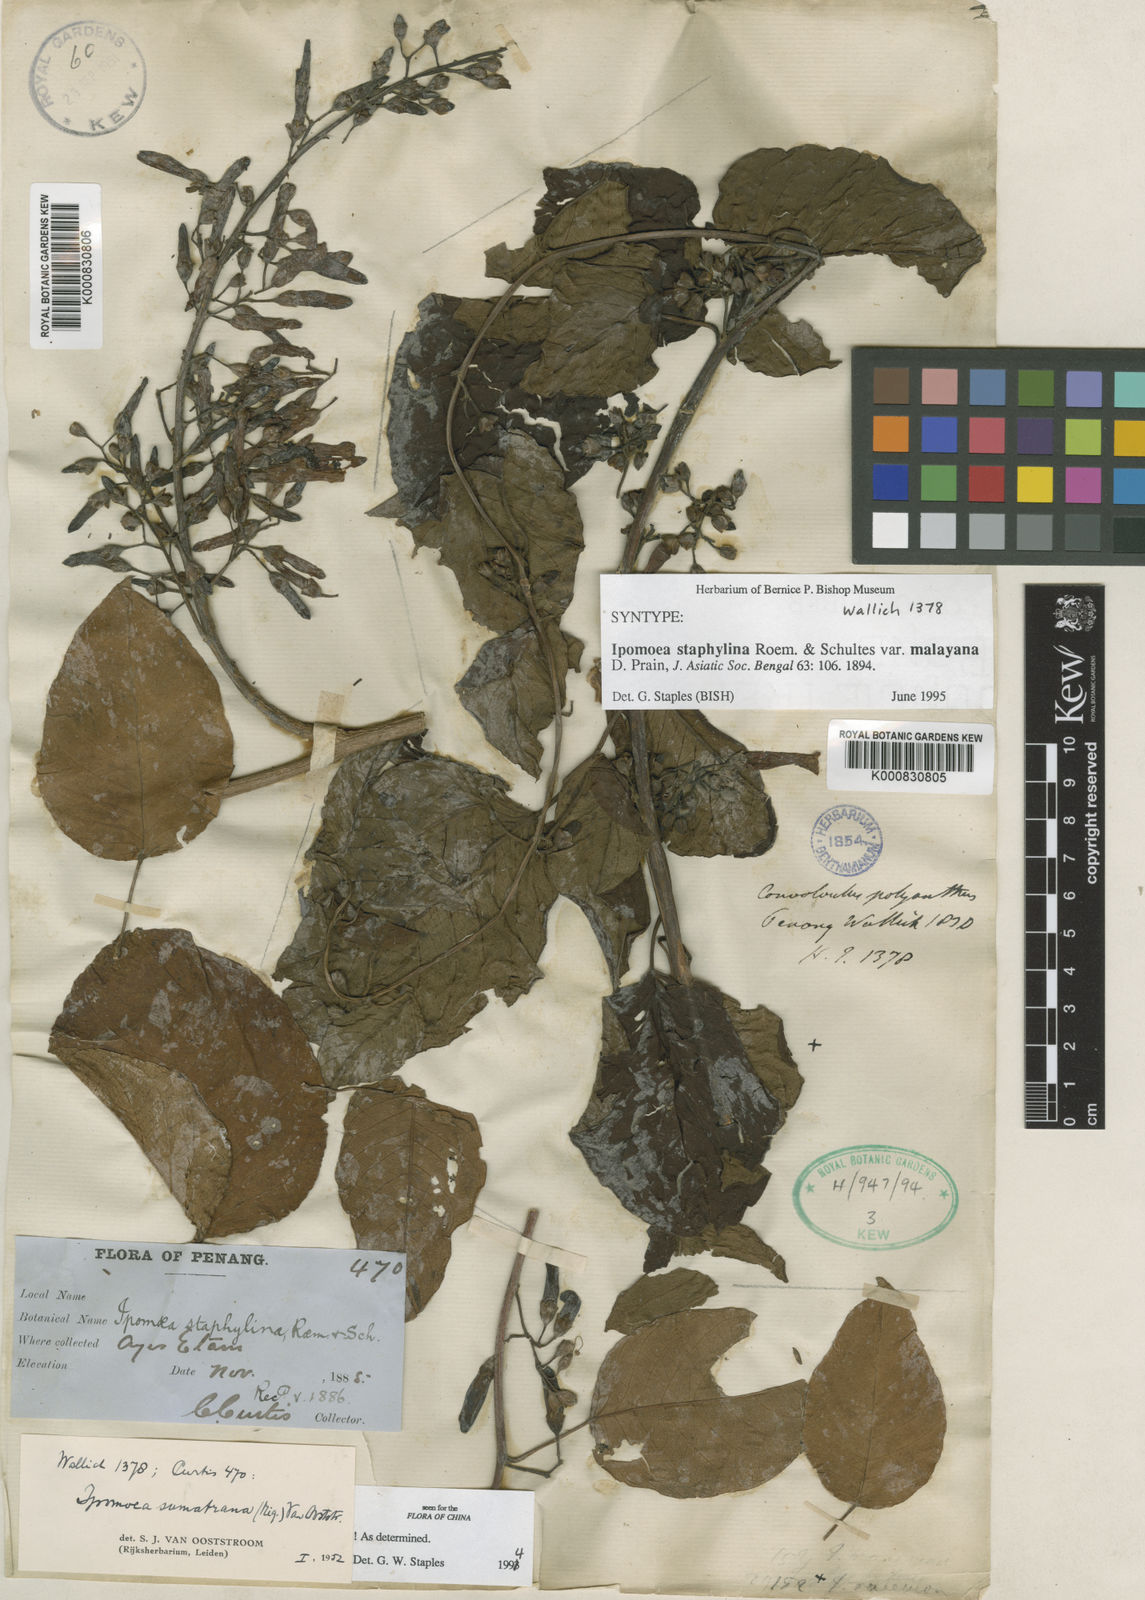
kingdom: Plantae
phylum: Tracheophyta
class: Magnoliopsida
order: Solanales
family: Convolvulaceae
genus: Ipomoea
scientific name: Ipomoea sumatrana
